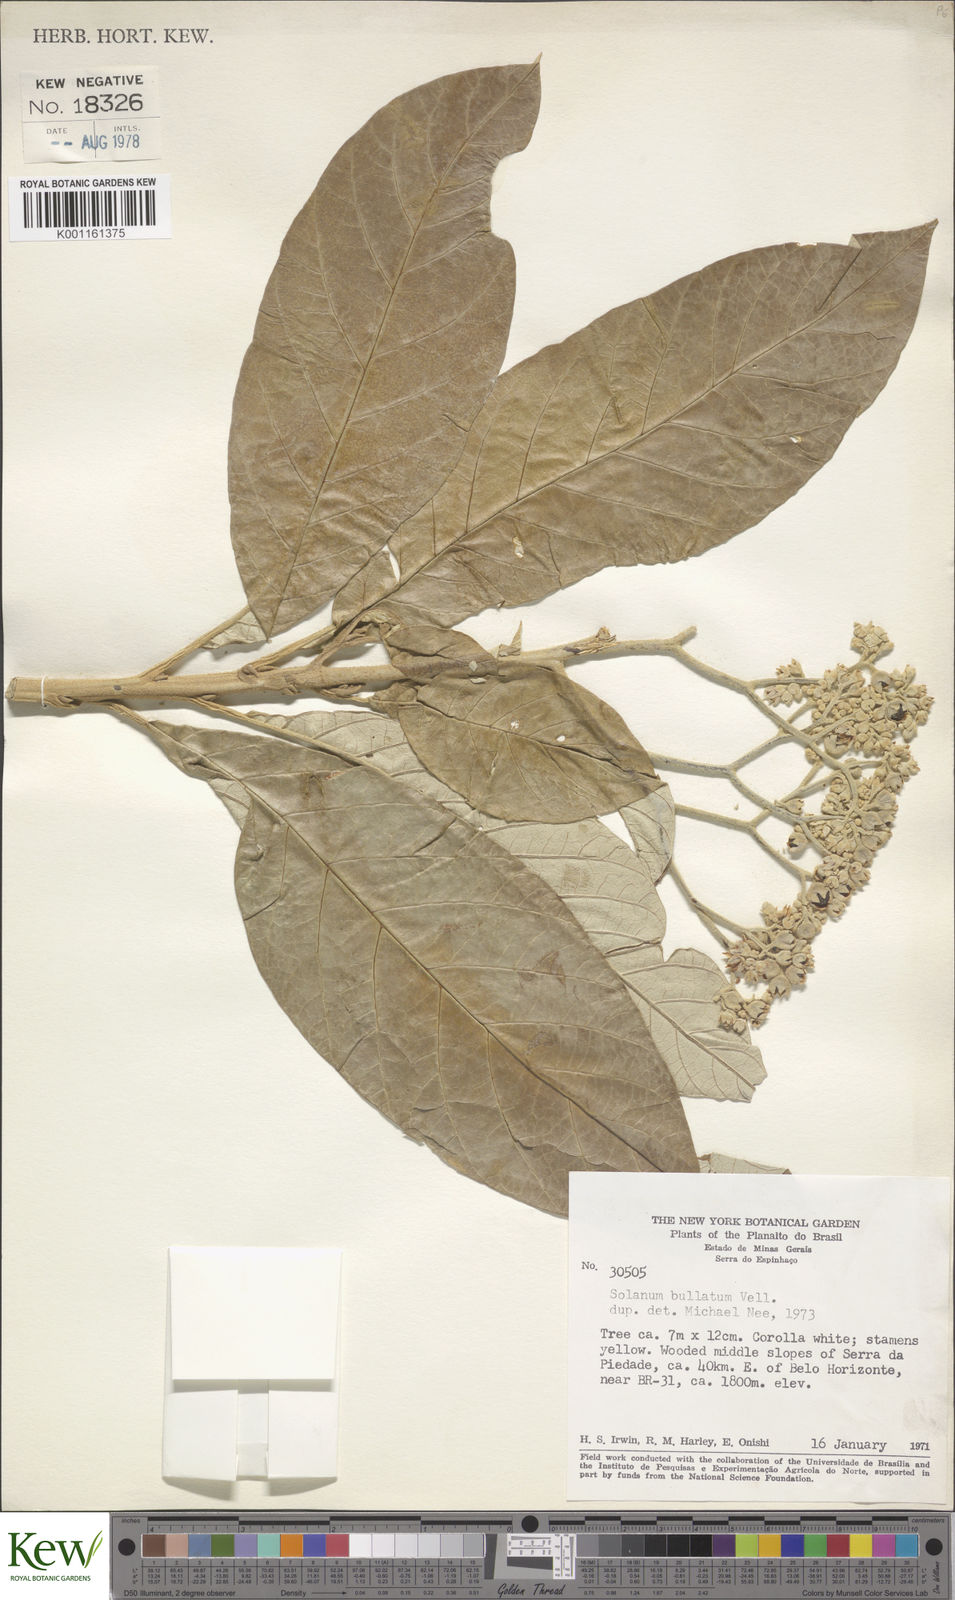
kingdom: Plantae
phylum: Tracheophyta
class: Magnoliopsida
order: Solanales
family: Solanaceae
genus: Solanum
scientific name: Solanum bullatum
